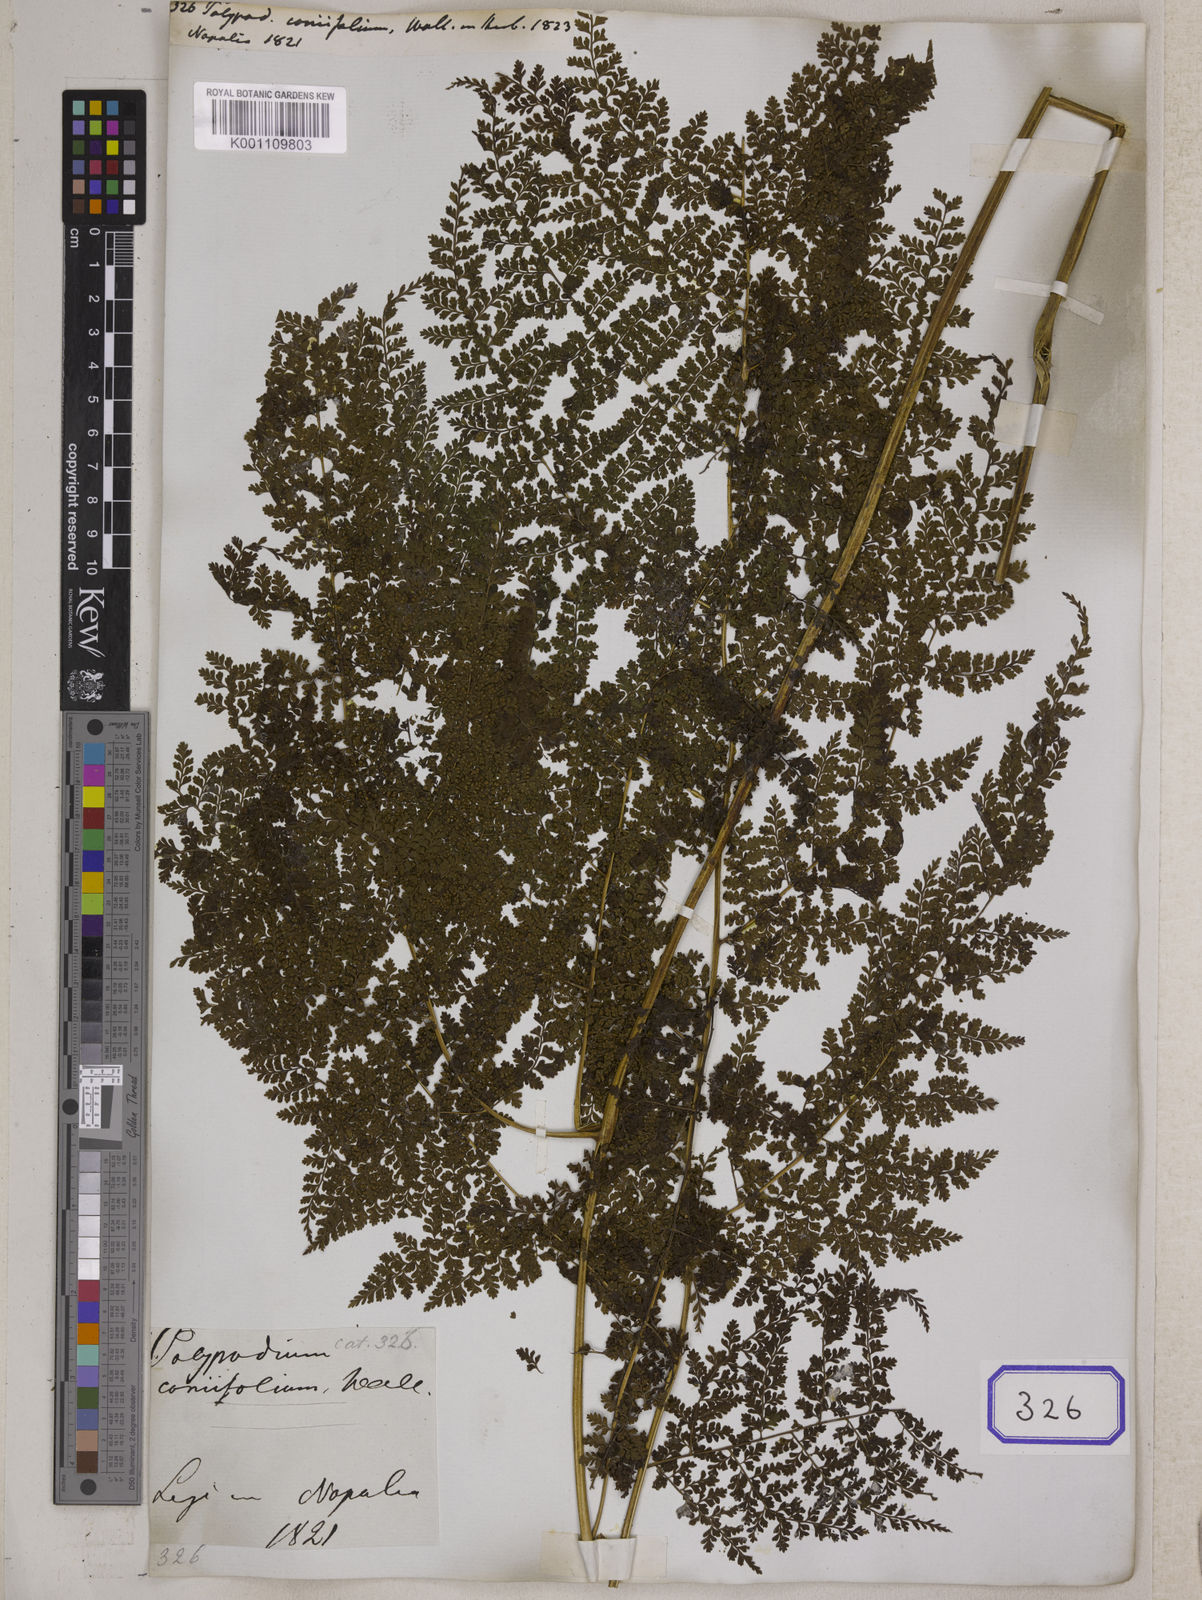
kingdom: Plantae
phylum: Tracheophyta
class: Polypodiopsida
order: Polypodiales
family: Dennstaedtiaceae
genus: Monachosorum
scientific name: Monachosorum subdigitatum
